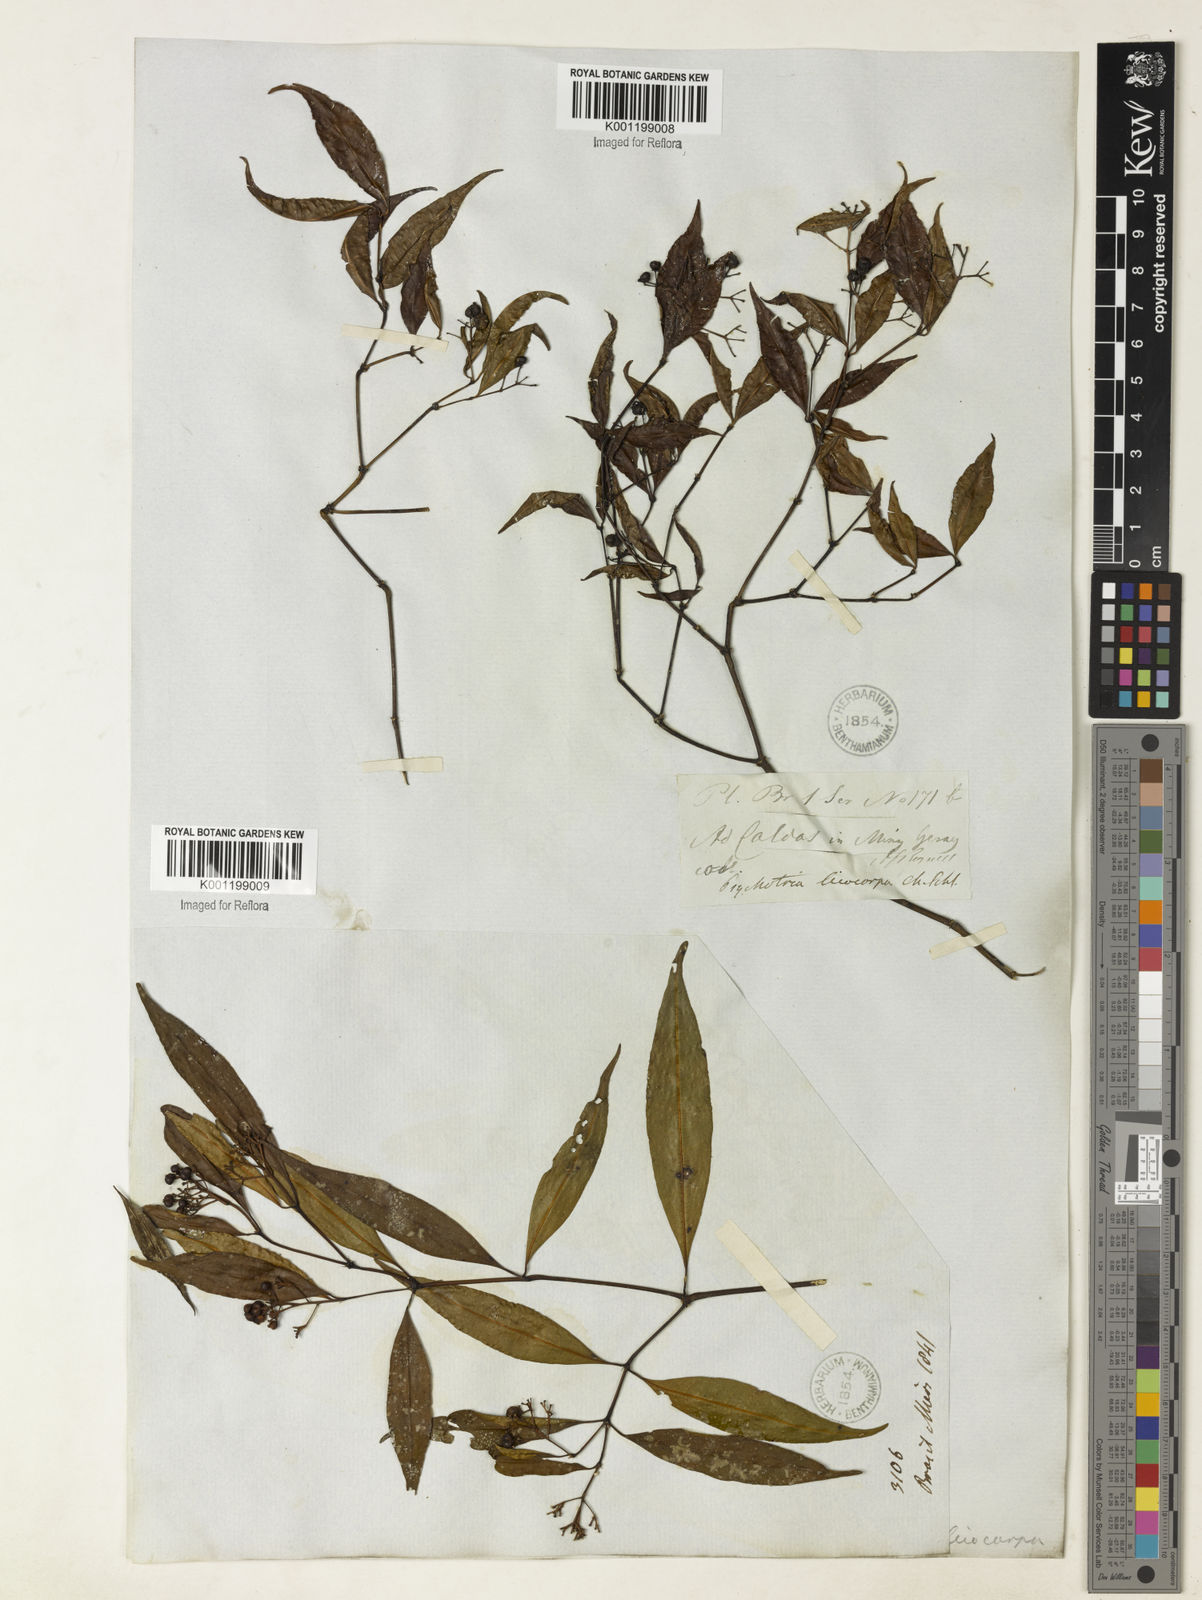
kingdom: Plantae
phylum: Tracheophyta
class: Magnoliopsida
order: Gentianales
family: Rubiaceae
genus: Psychotria
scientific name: Psychotria leiocarpa
